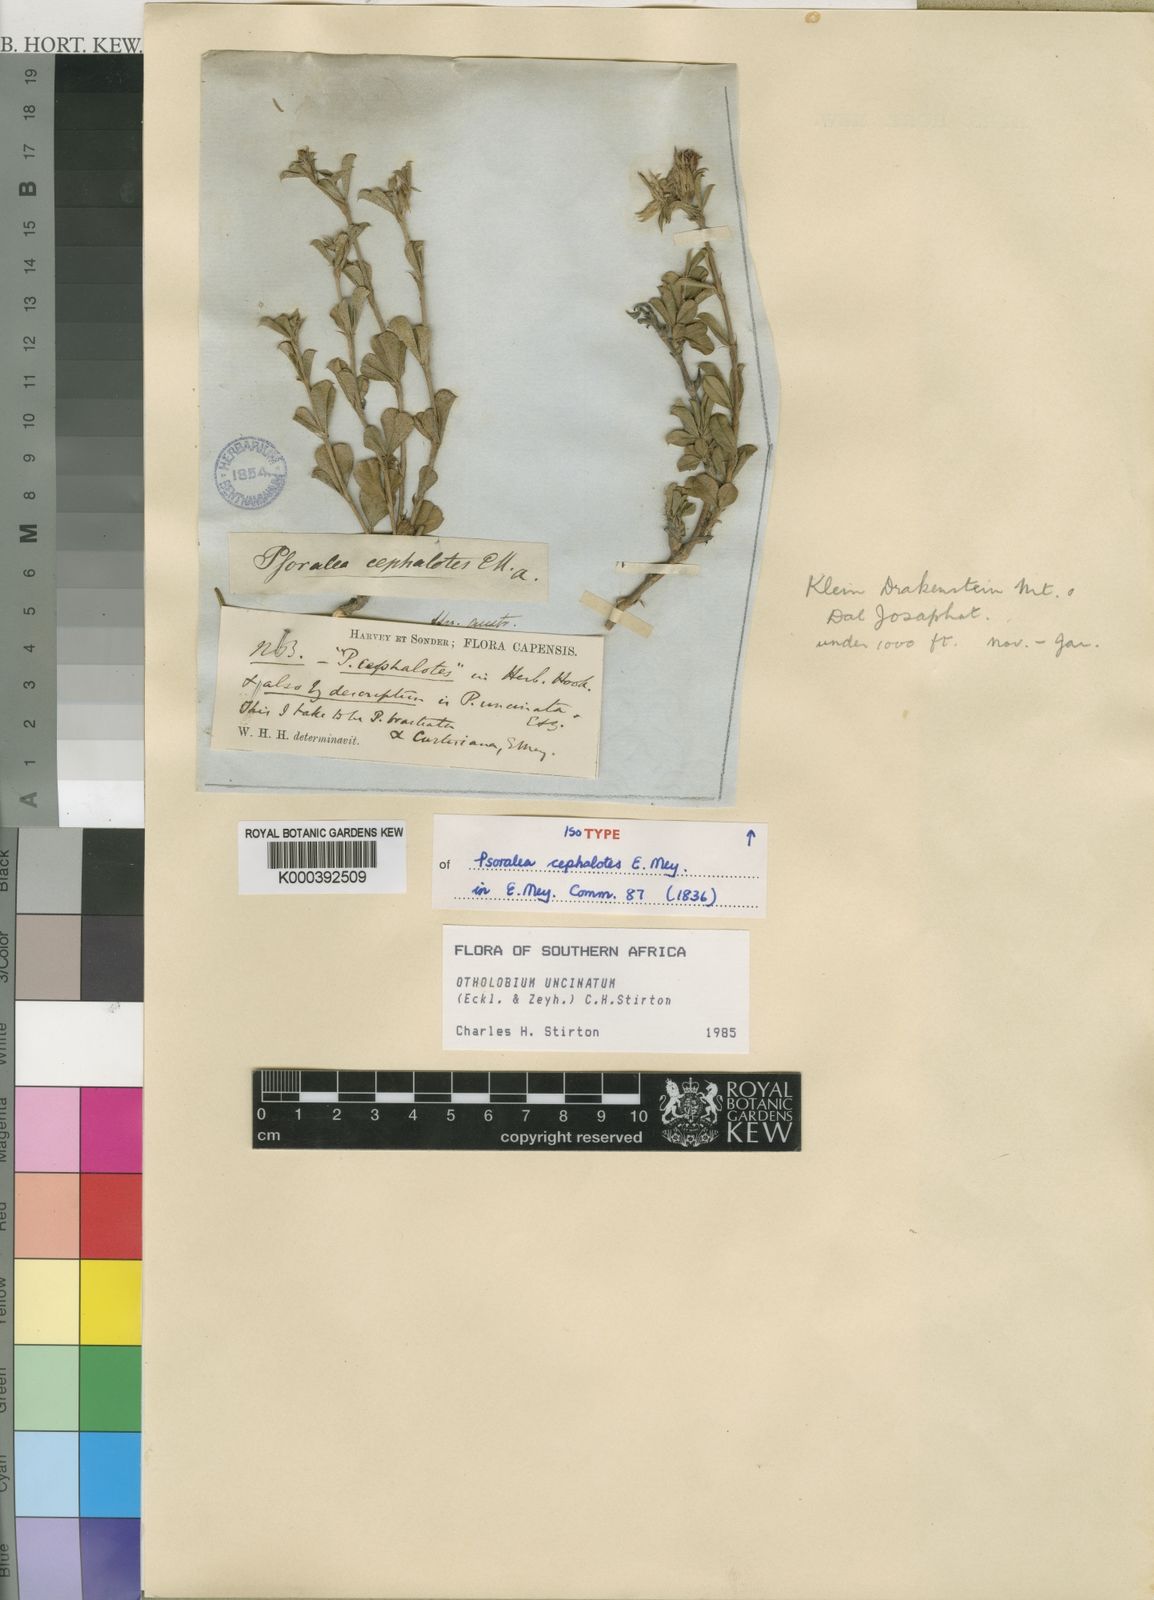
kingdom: Plantae
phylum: Tracheophyta
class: Magnoliopsida
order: Fabales
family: Fabaceae
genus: Psoralea
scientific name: Psoralea uncinata
